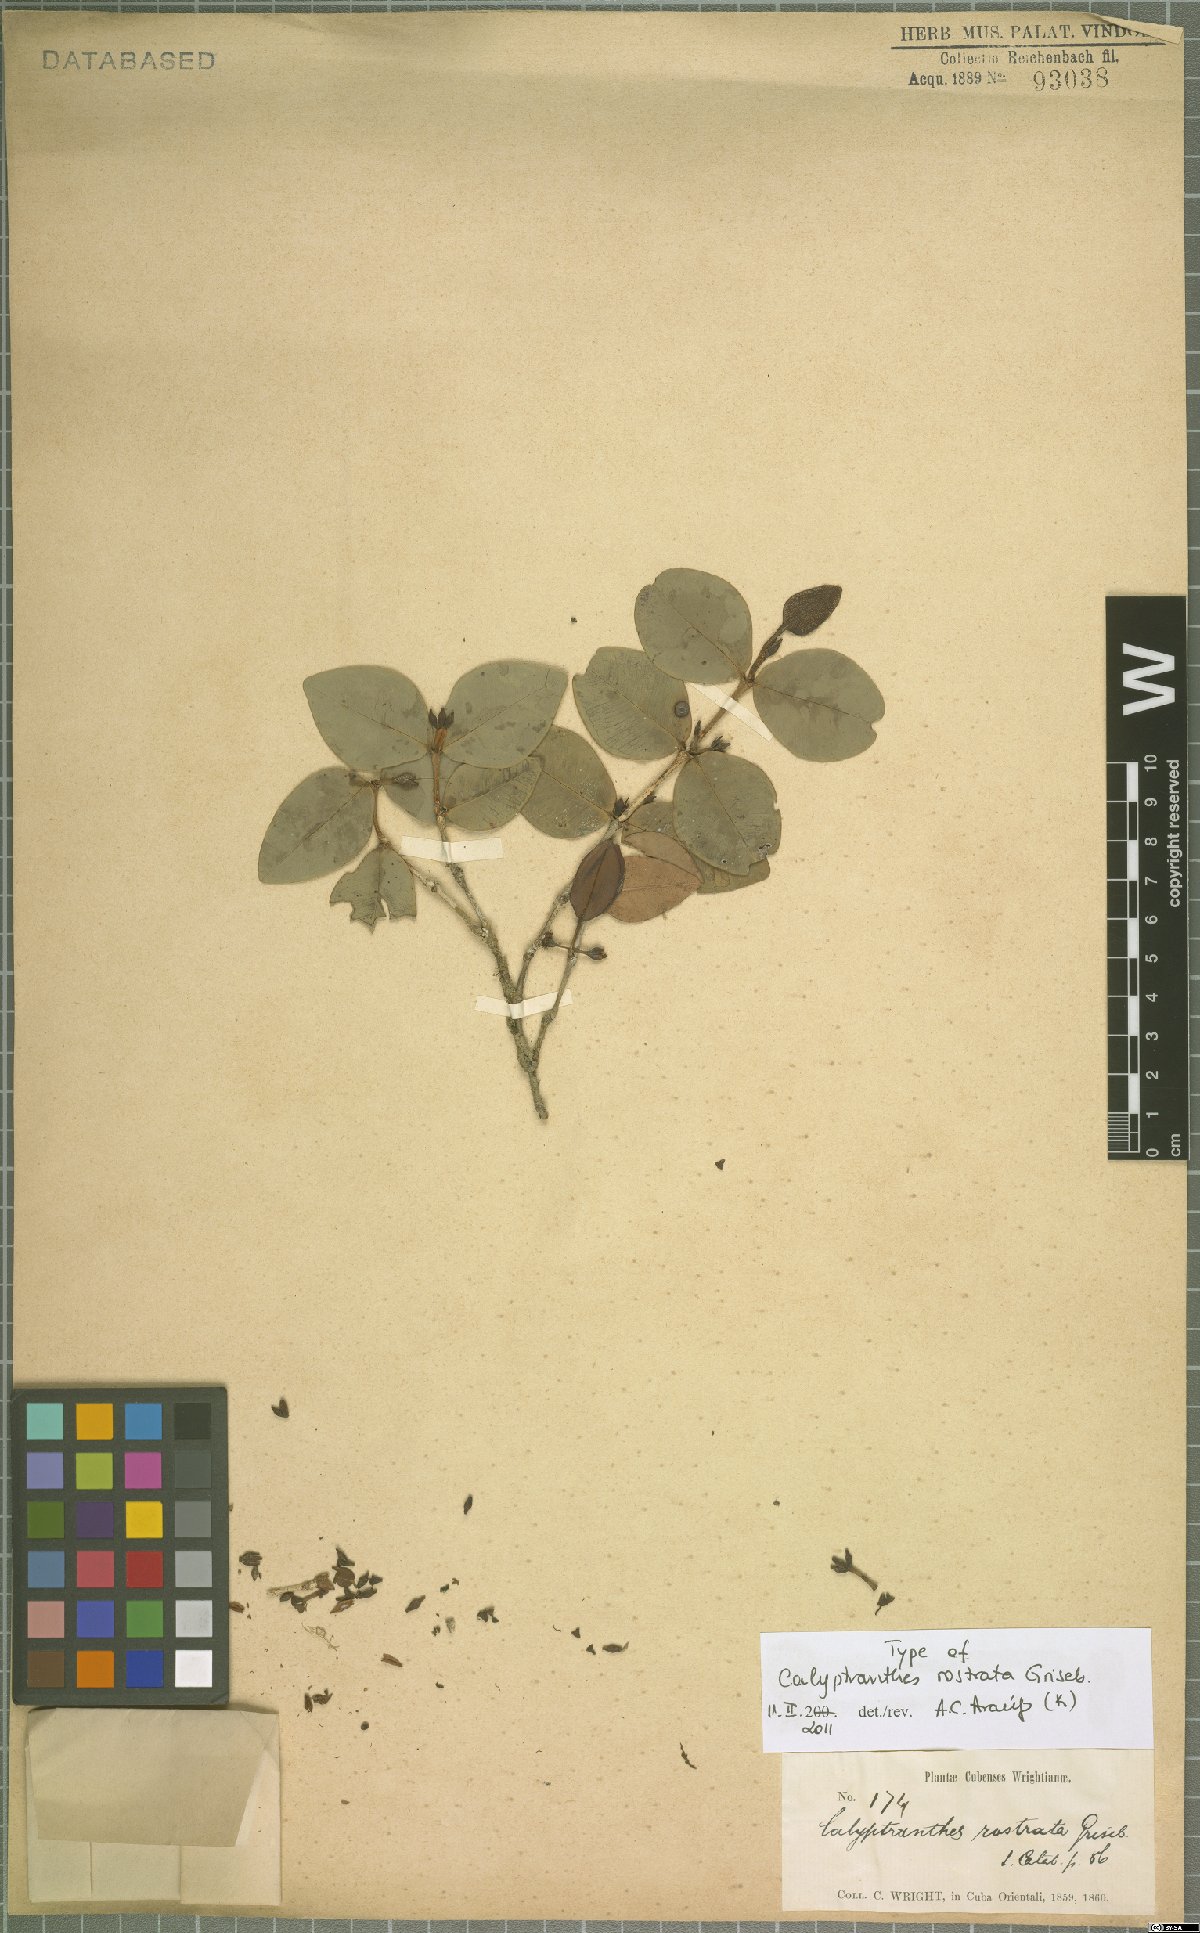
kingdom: Plantae
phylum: Tracheophyta
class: Magnoliopsida
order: Myrtales
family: Myrtaceae
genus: Myrcia
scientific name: Myrcia adunca
